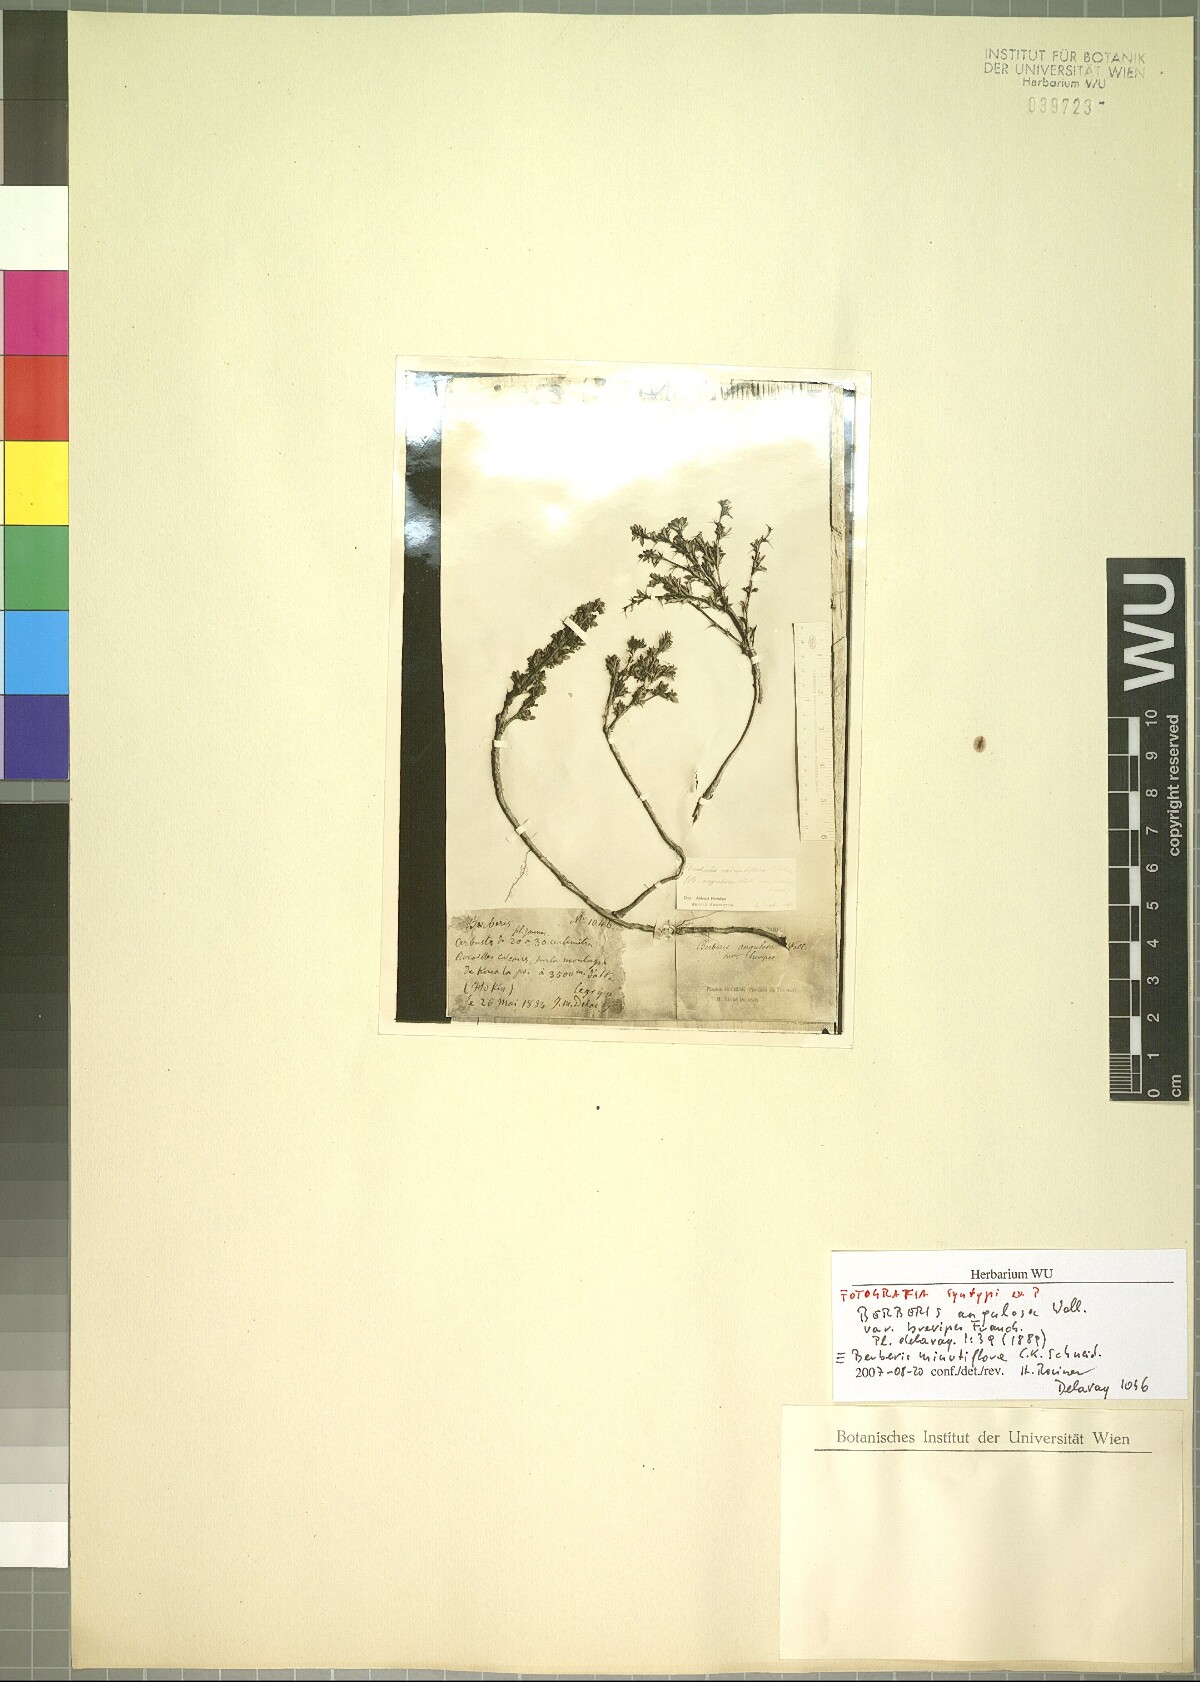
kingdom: Plantae
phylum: Tracheophyta
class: Magnoliopsida
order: Ranunculales
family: Berberidaceae
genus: Berberis
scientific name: Berberis minutiflora
